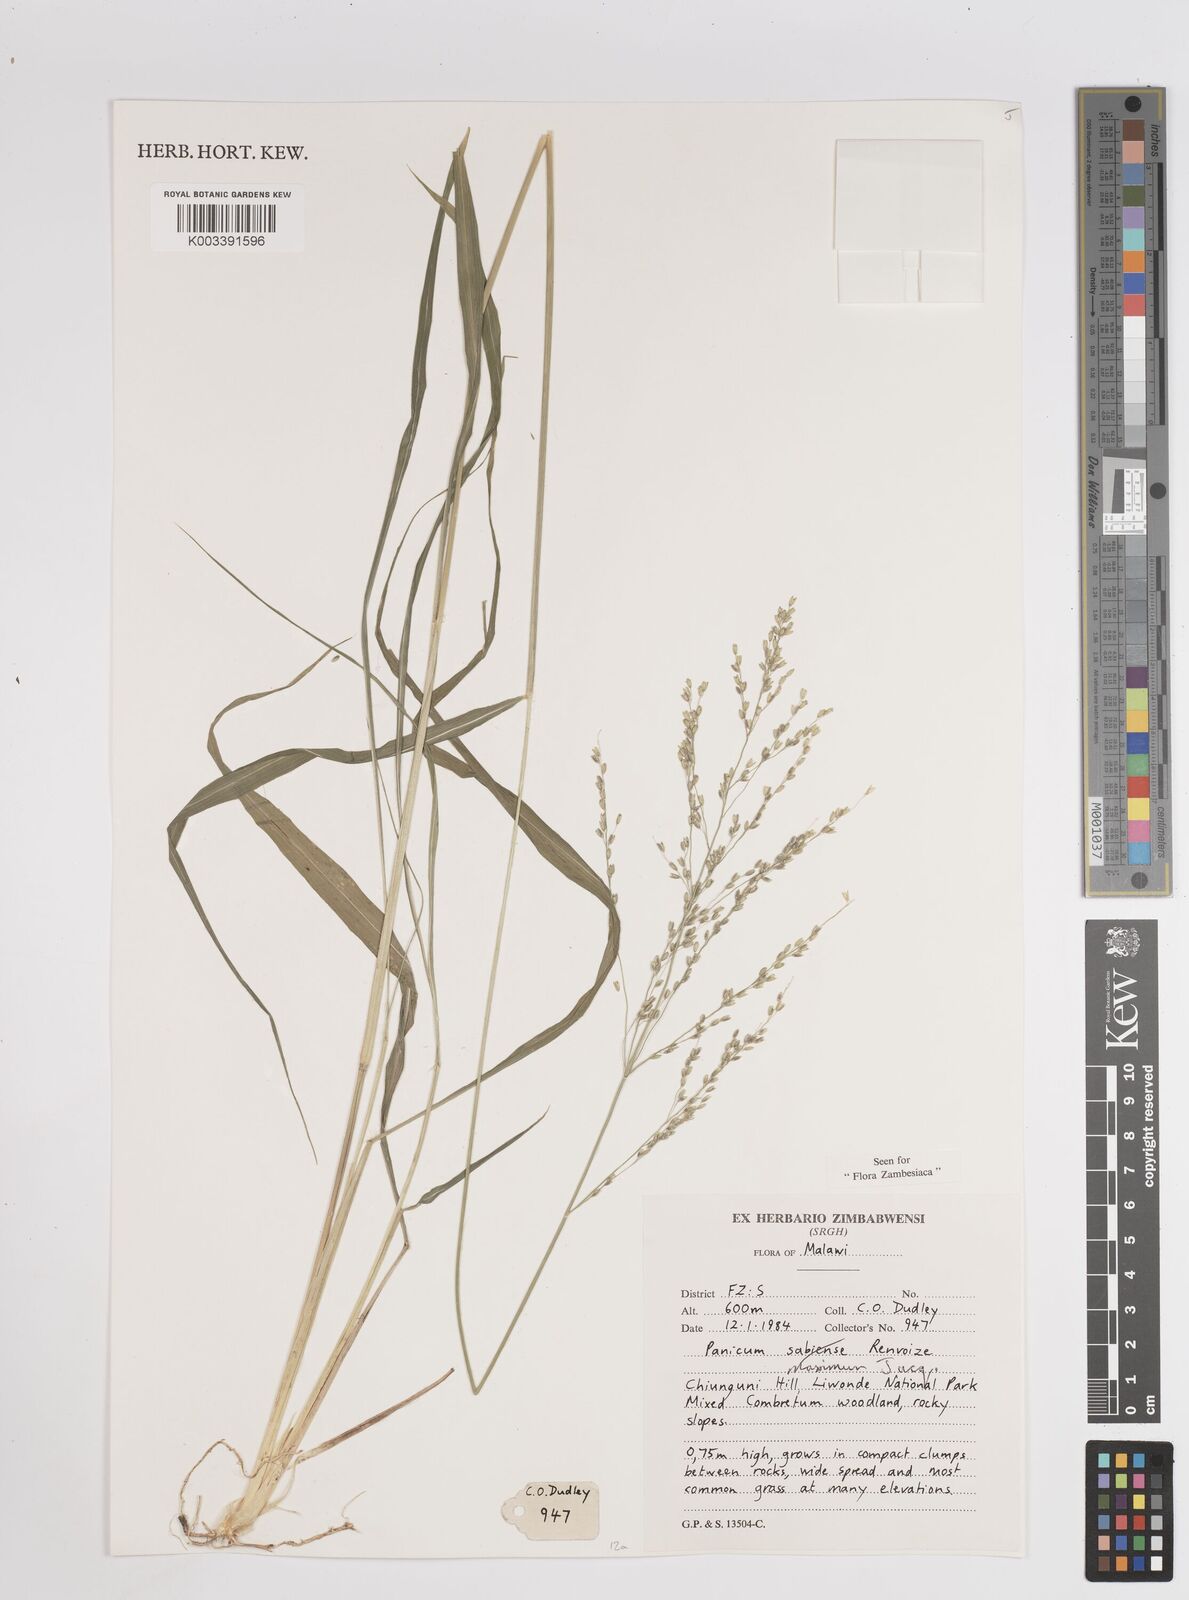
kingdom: Plantae
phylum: Tracheophyta
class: Liliopsida
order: Poales
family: Poaceae
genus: Megathyrsus
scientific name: Megathyrsus maximus
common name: Guineagrass
